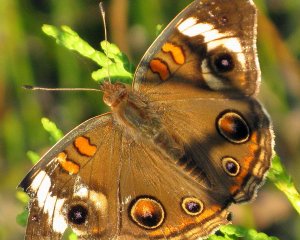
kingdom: Animalia
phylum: Arthropoda
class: Insecta
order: Lepidoptera
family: Nymphalidae
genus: Junonia
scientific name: Junonia coenia
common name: Common Buckeye
